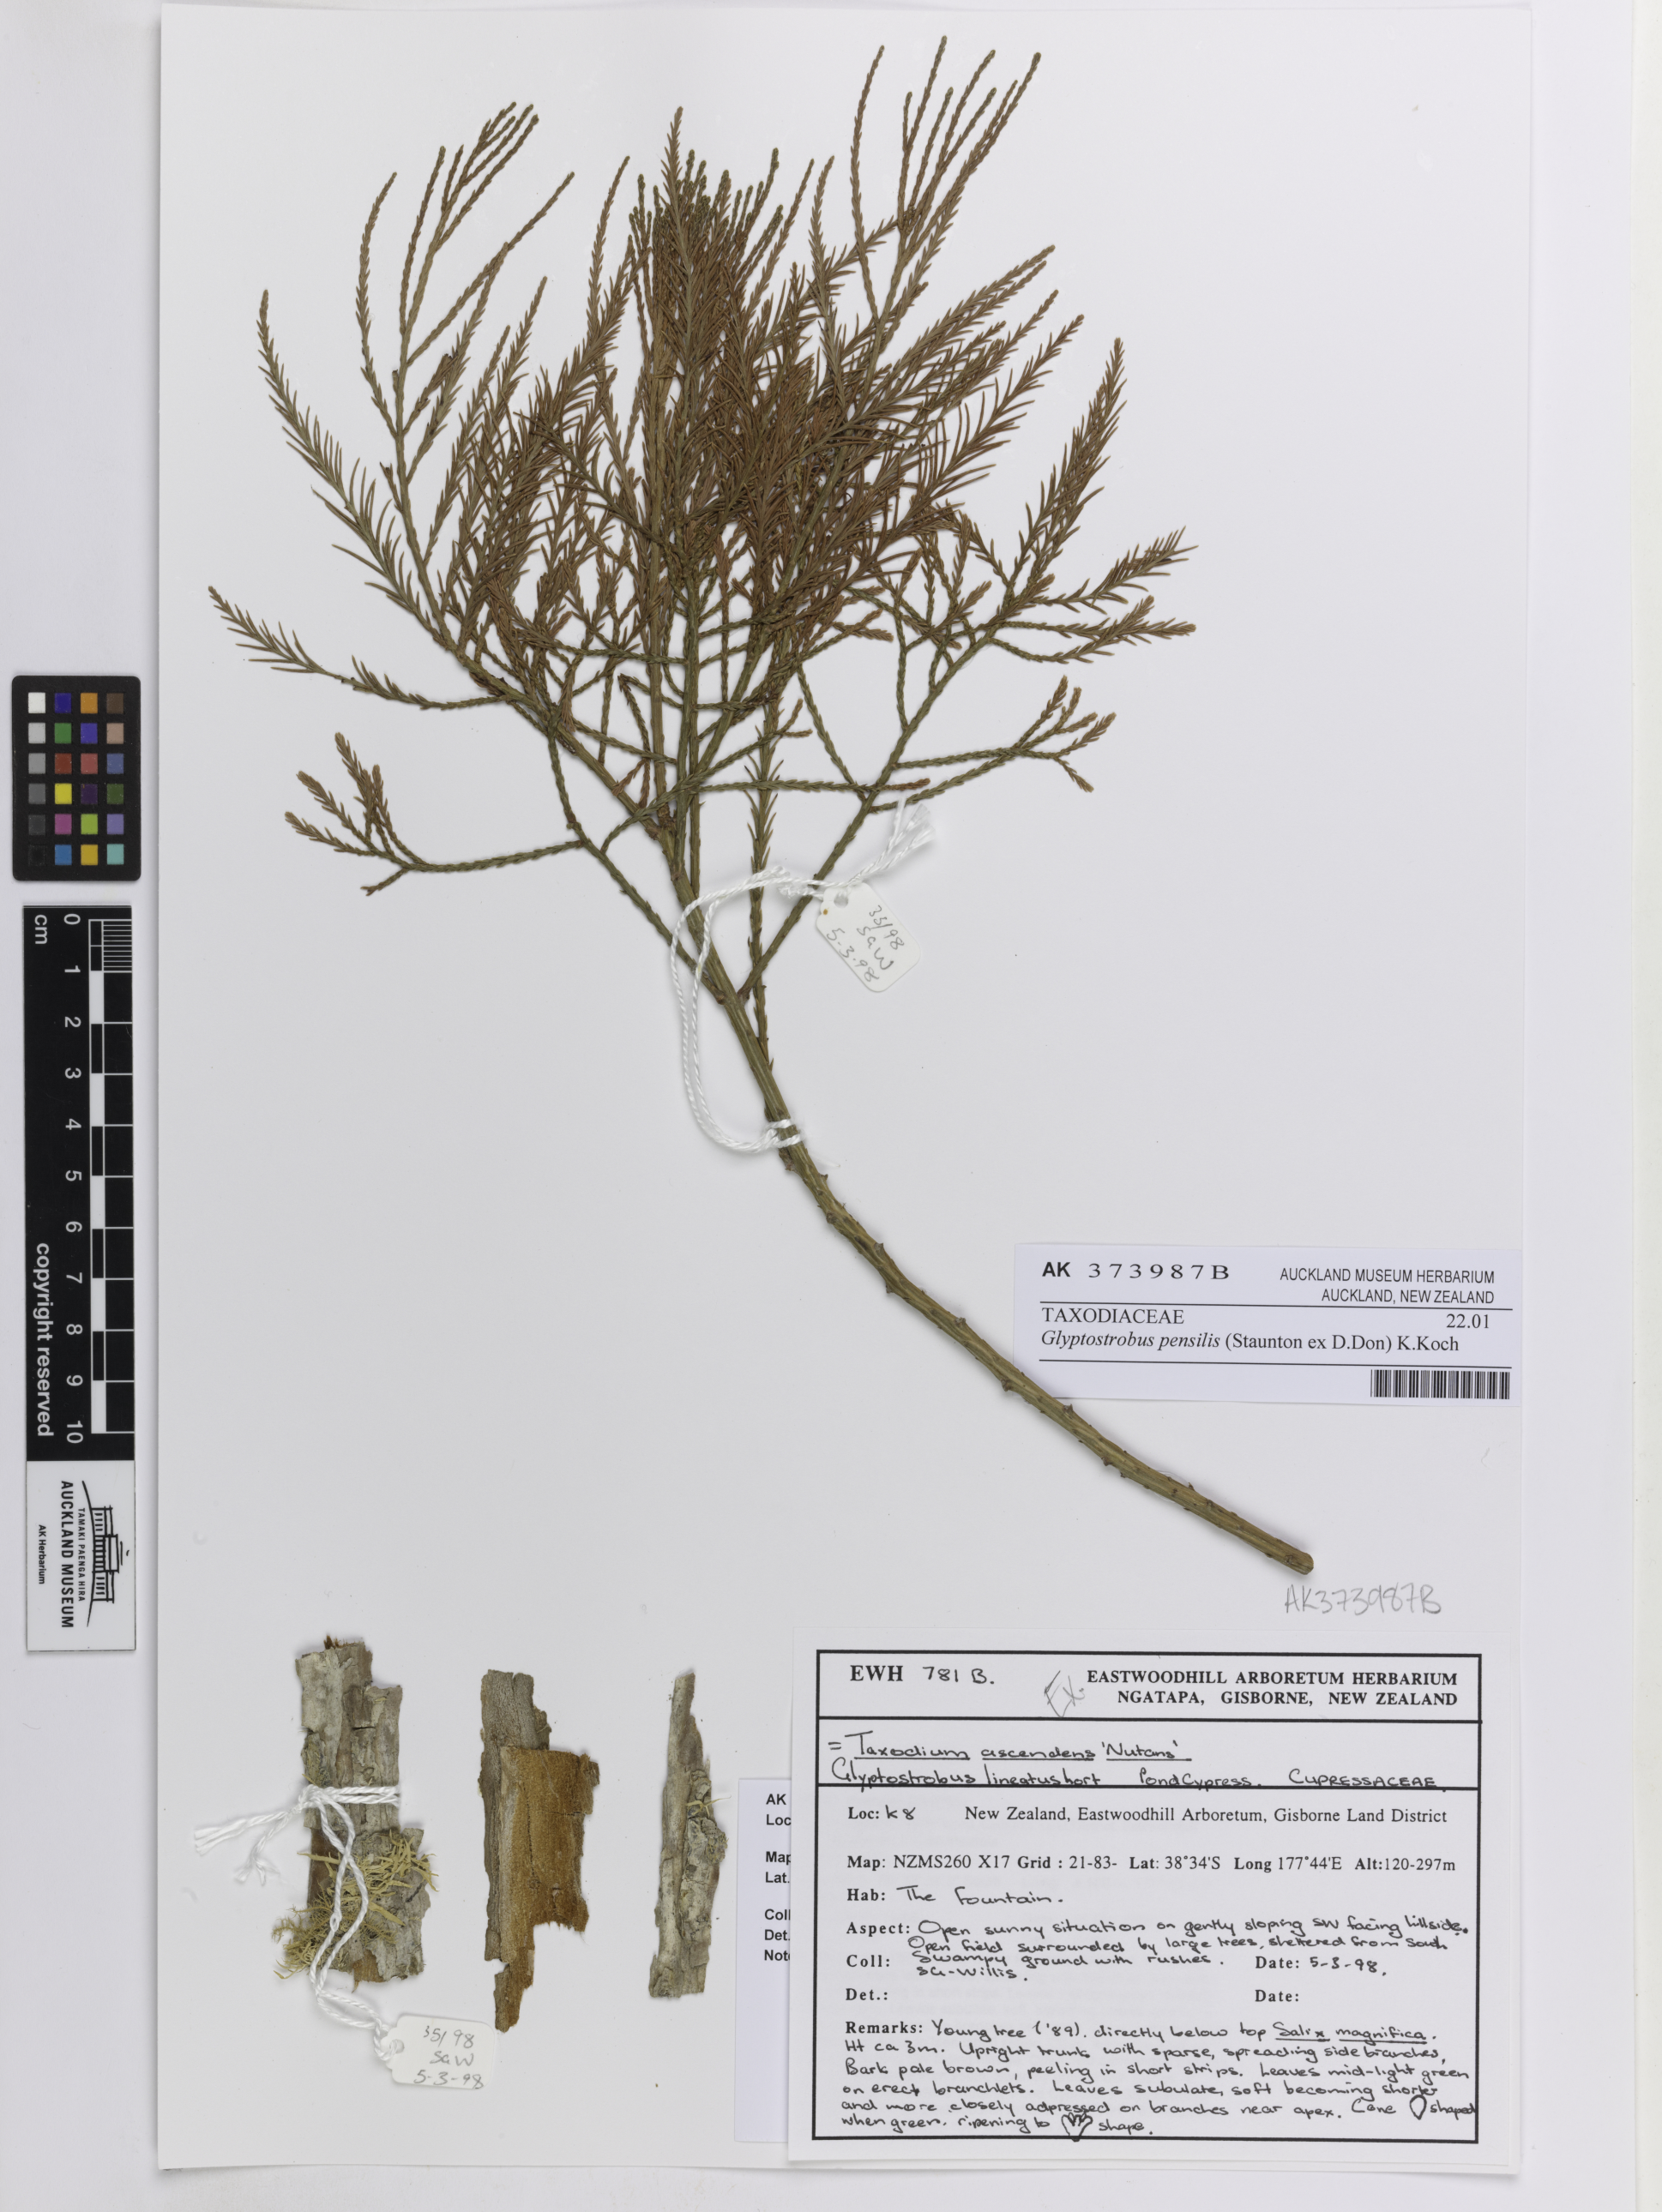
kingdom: Plantae
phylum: Tracheophyta
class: Pinopsida
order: Pinales
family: Cupressaceae
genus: Glyptostrobus
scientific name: Glyptostrobus pensilis
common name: Chines swamp cypress
